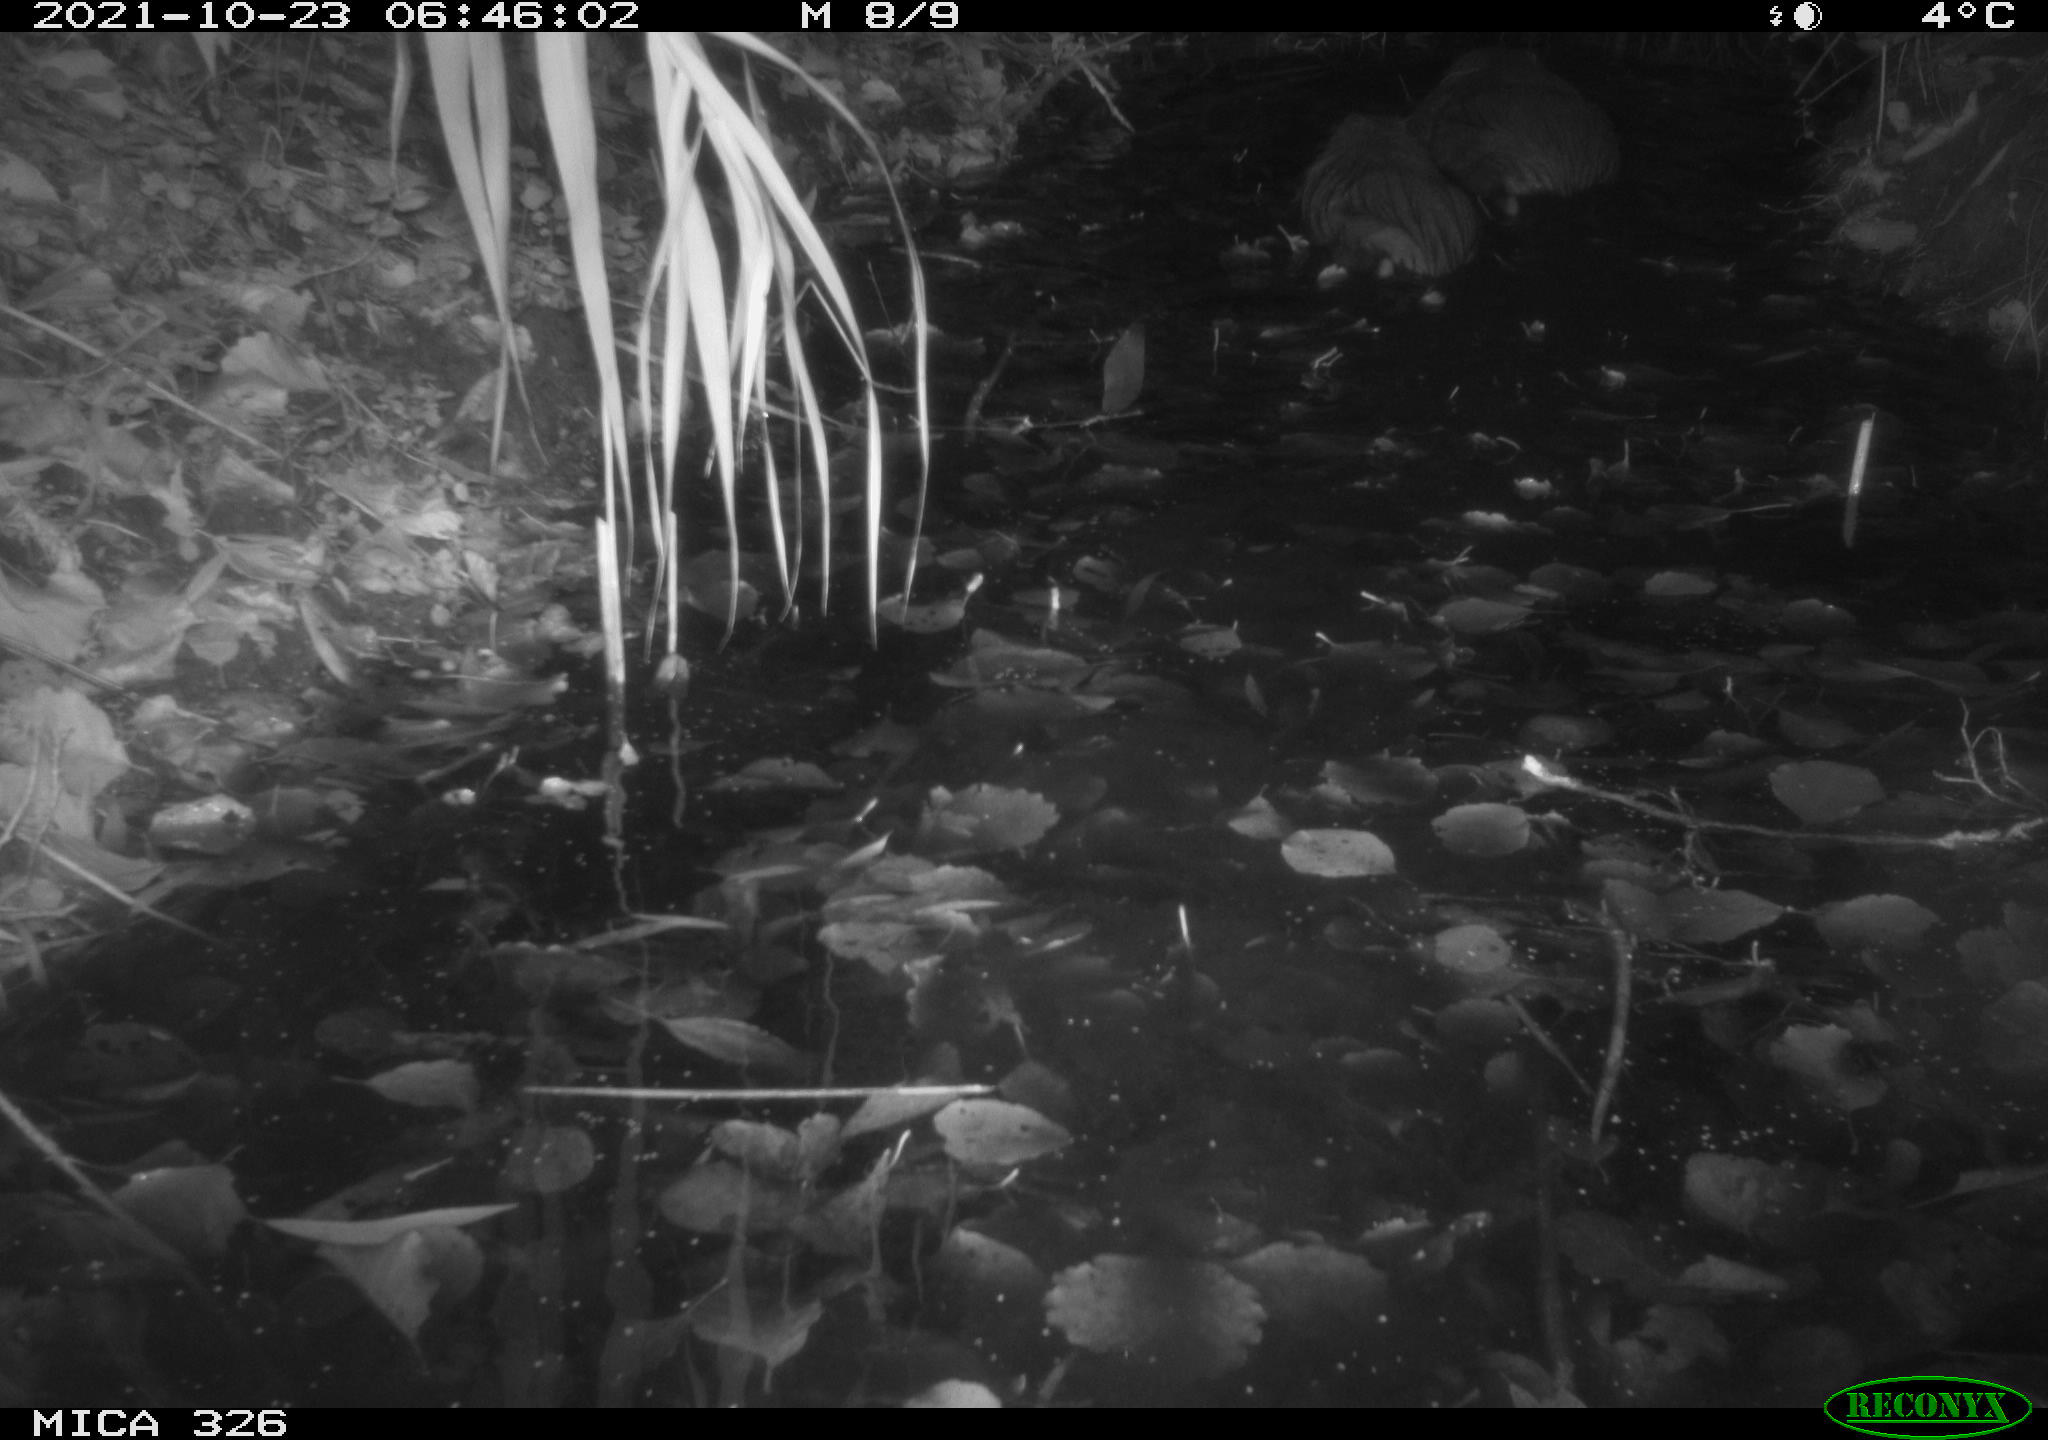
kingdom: Animalia
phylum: Chordata
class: Mammalia
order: Rodentia
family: Myocastoridae
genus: Myocastor
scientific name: Myocastor coypus
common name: Coypu
